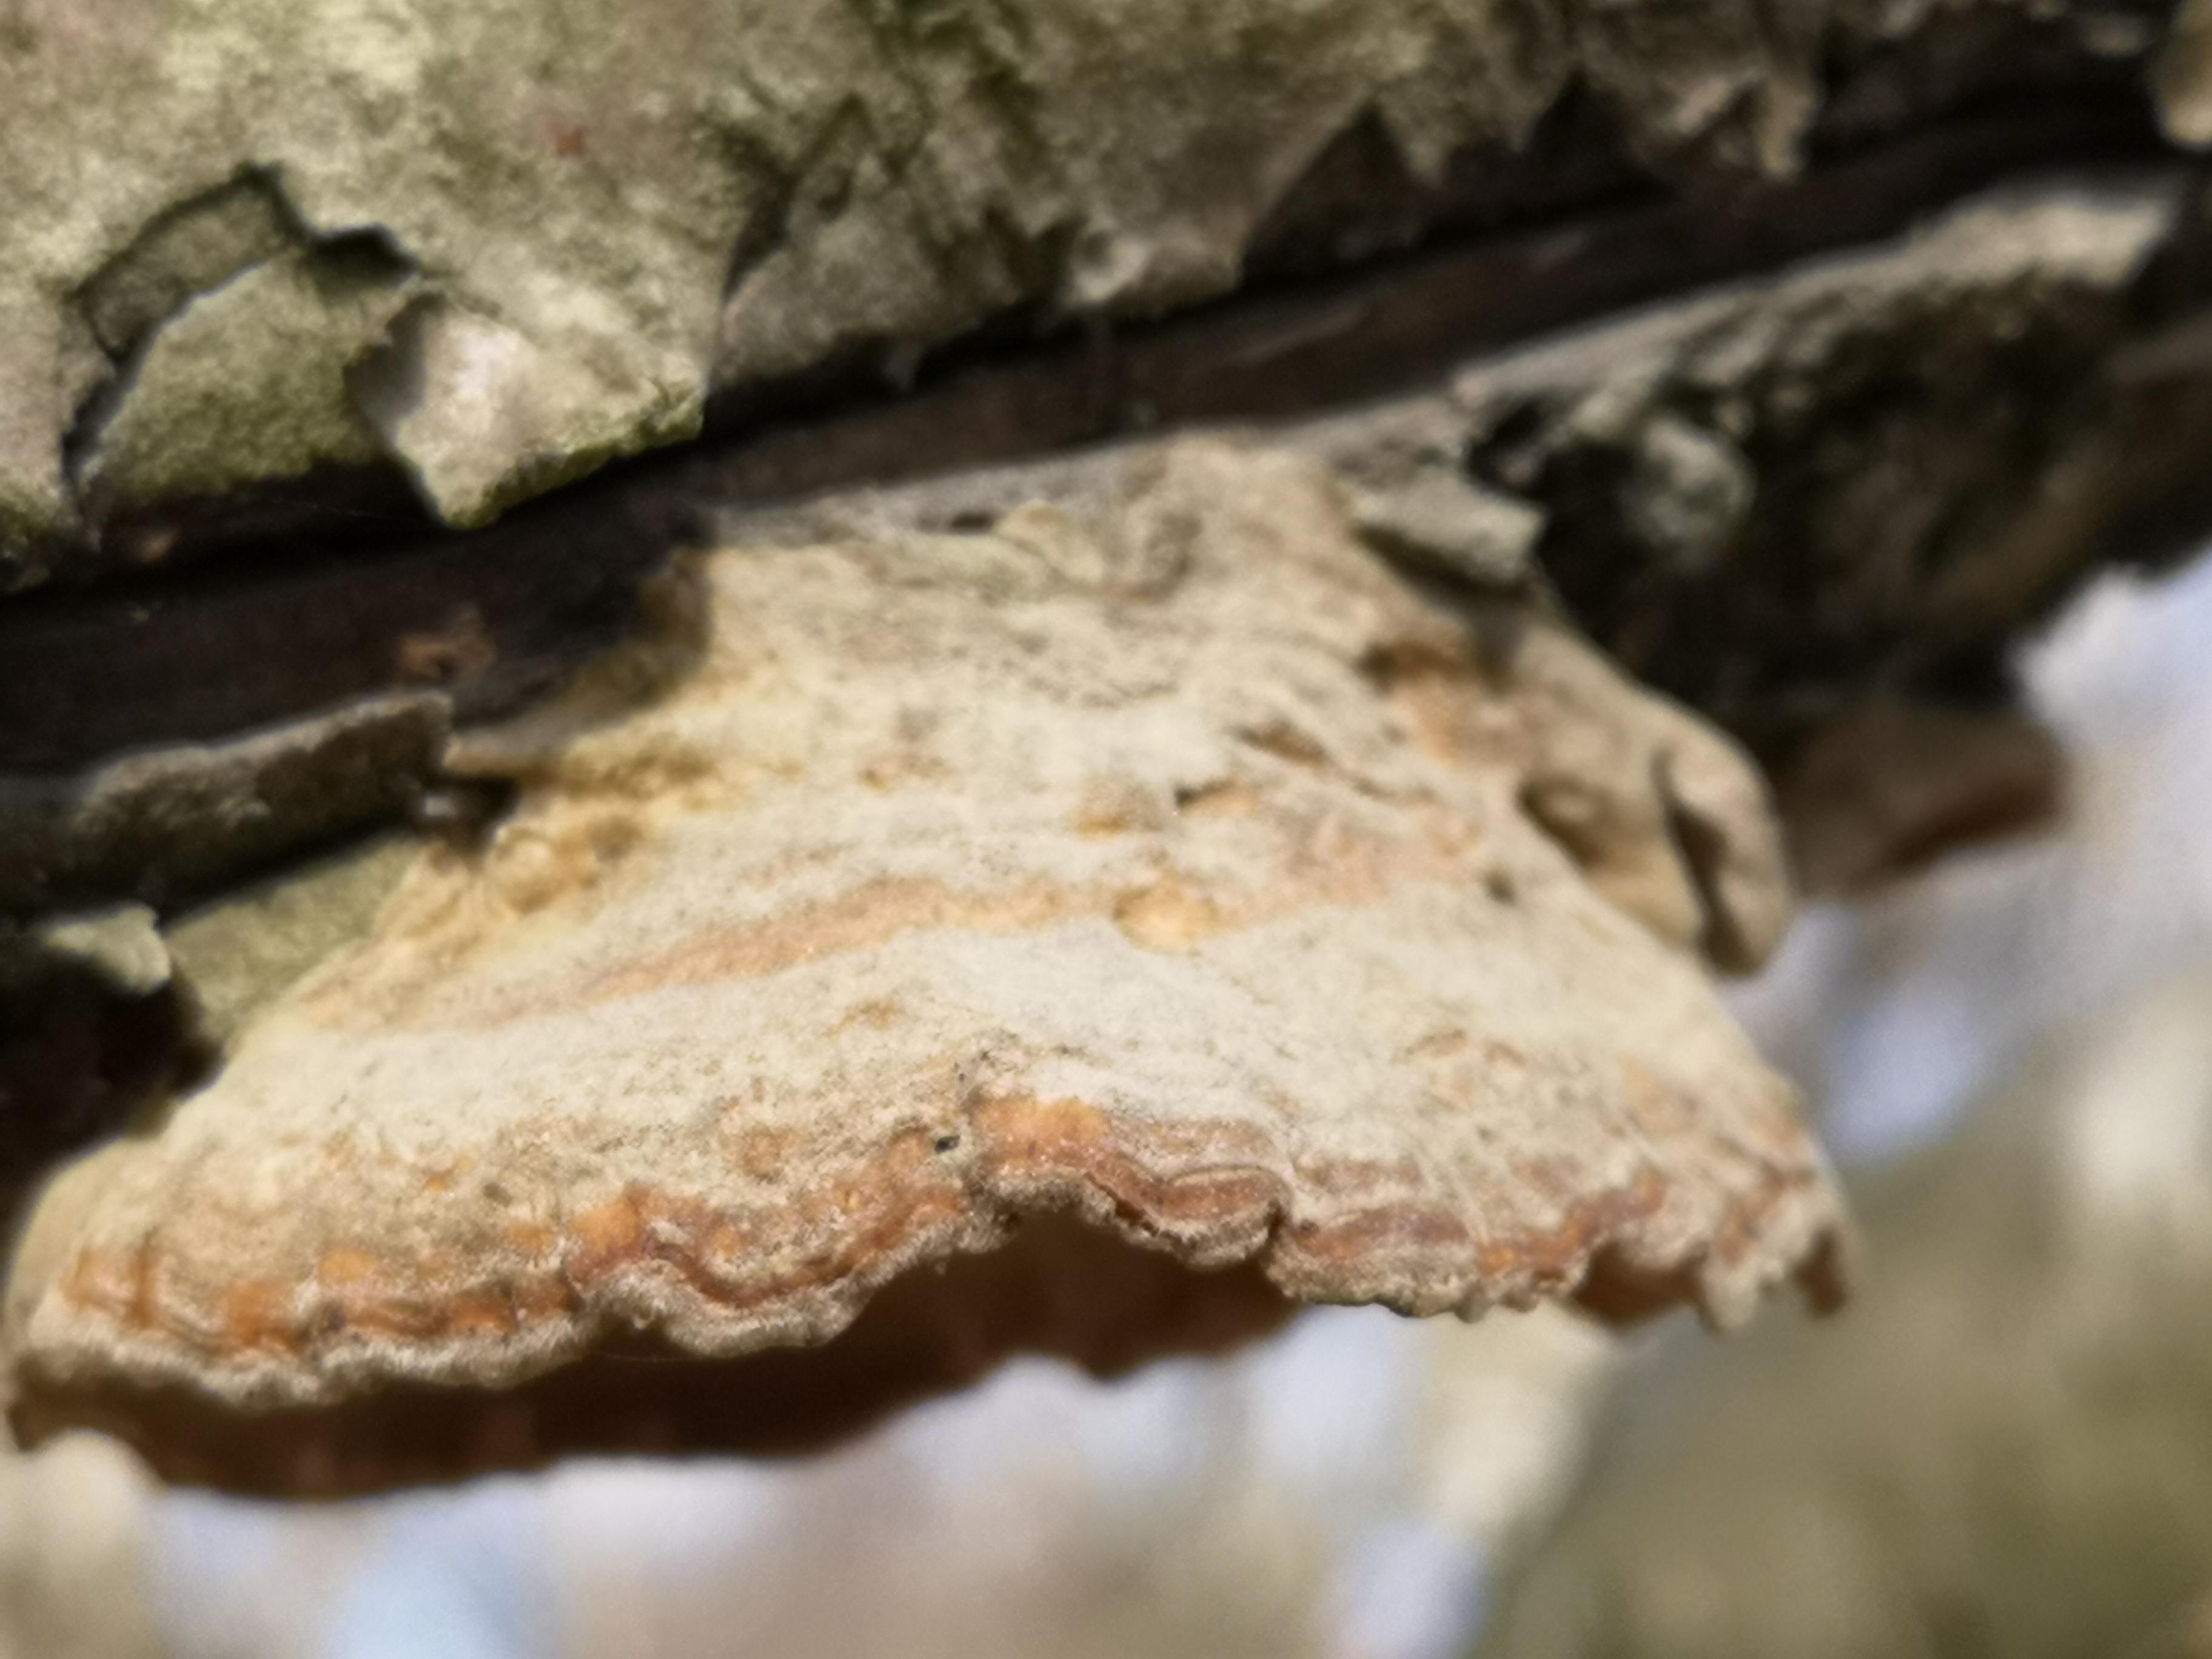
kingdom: Fungi
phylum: Basidiomycota
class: Agaricomycetes
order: Polyporales
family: Polyporaceae
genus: Trametes
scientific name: Trametes versicolor
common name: broget læderporesvamp
